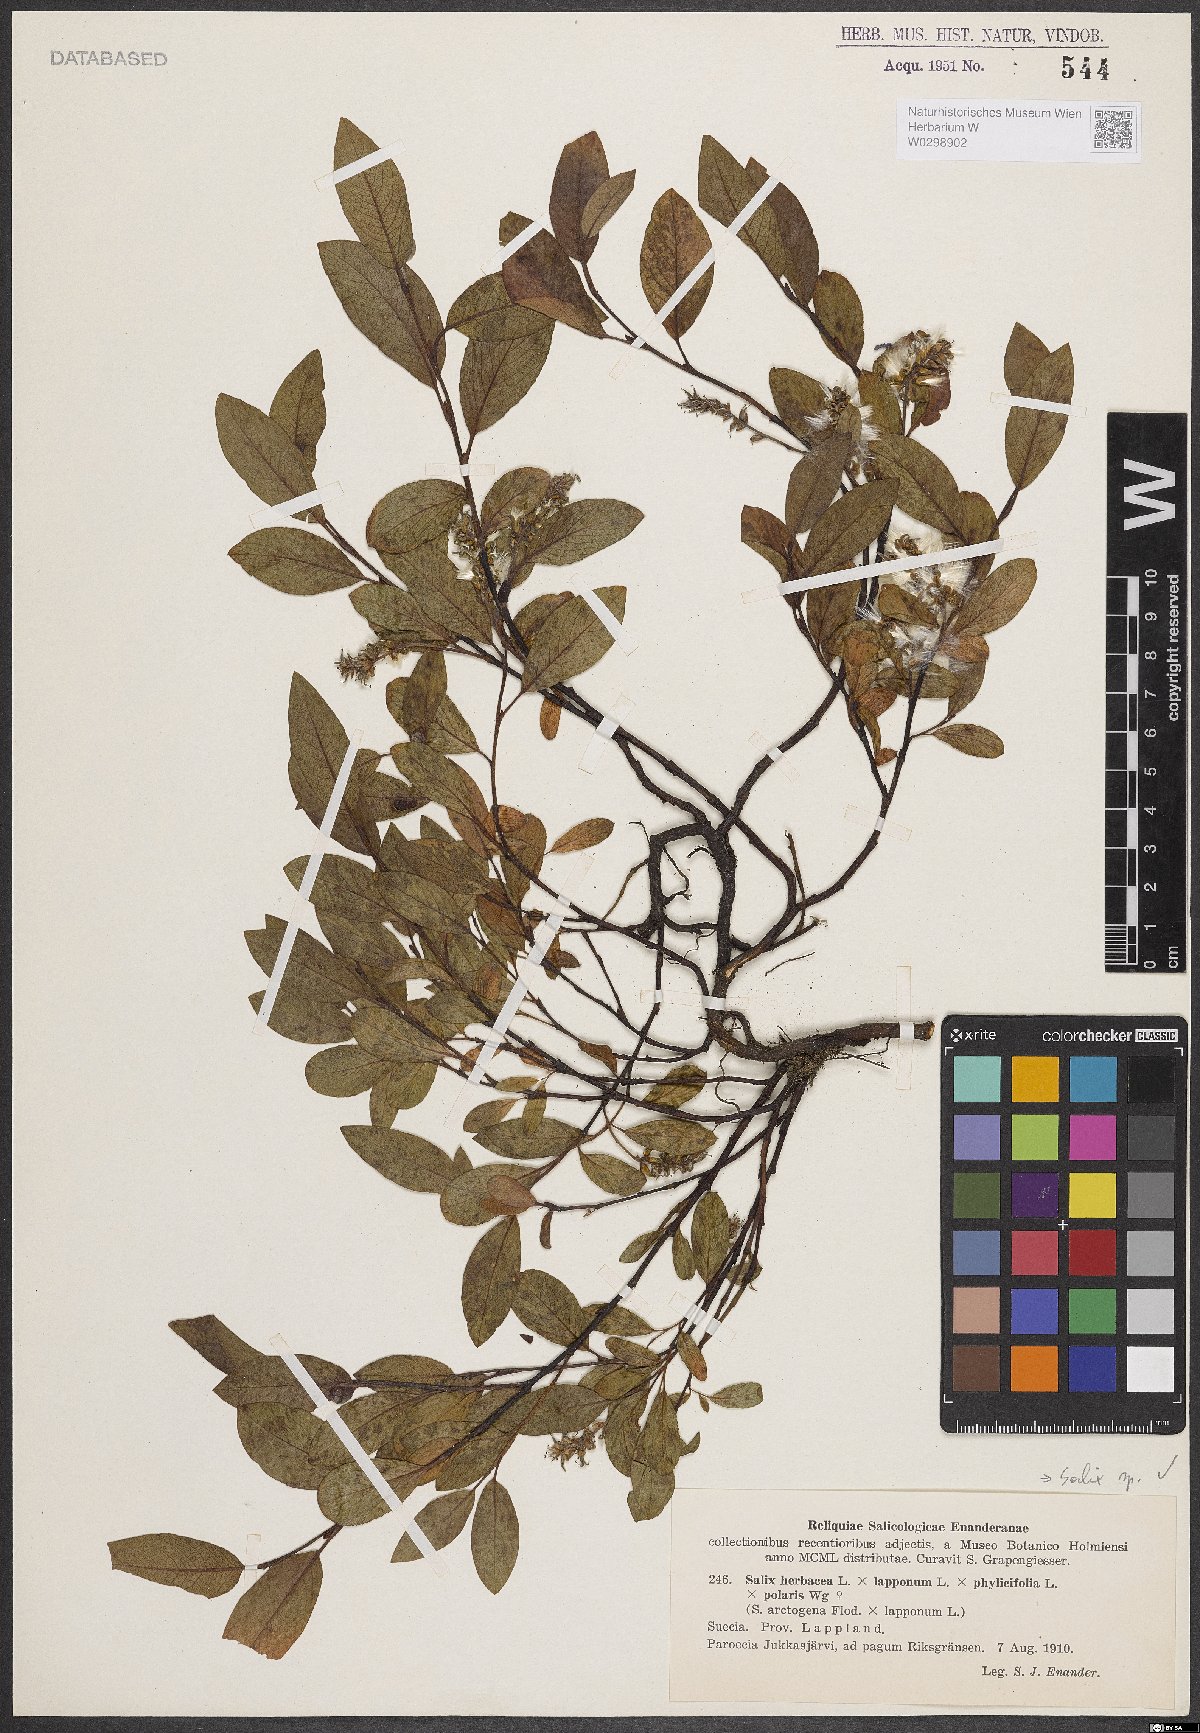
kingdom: Plantae
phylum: Tracheophyta
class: Magnoliopsida
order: Malpighiales
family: Salicaceae
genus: Salix
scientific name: Salix
